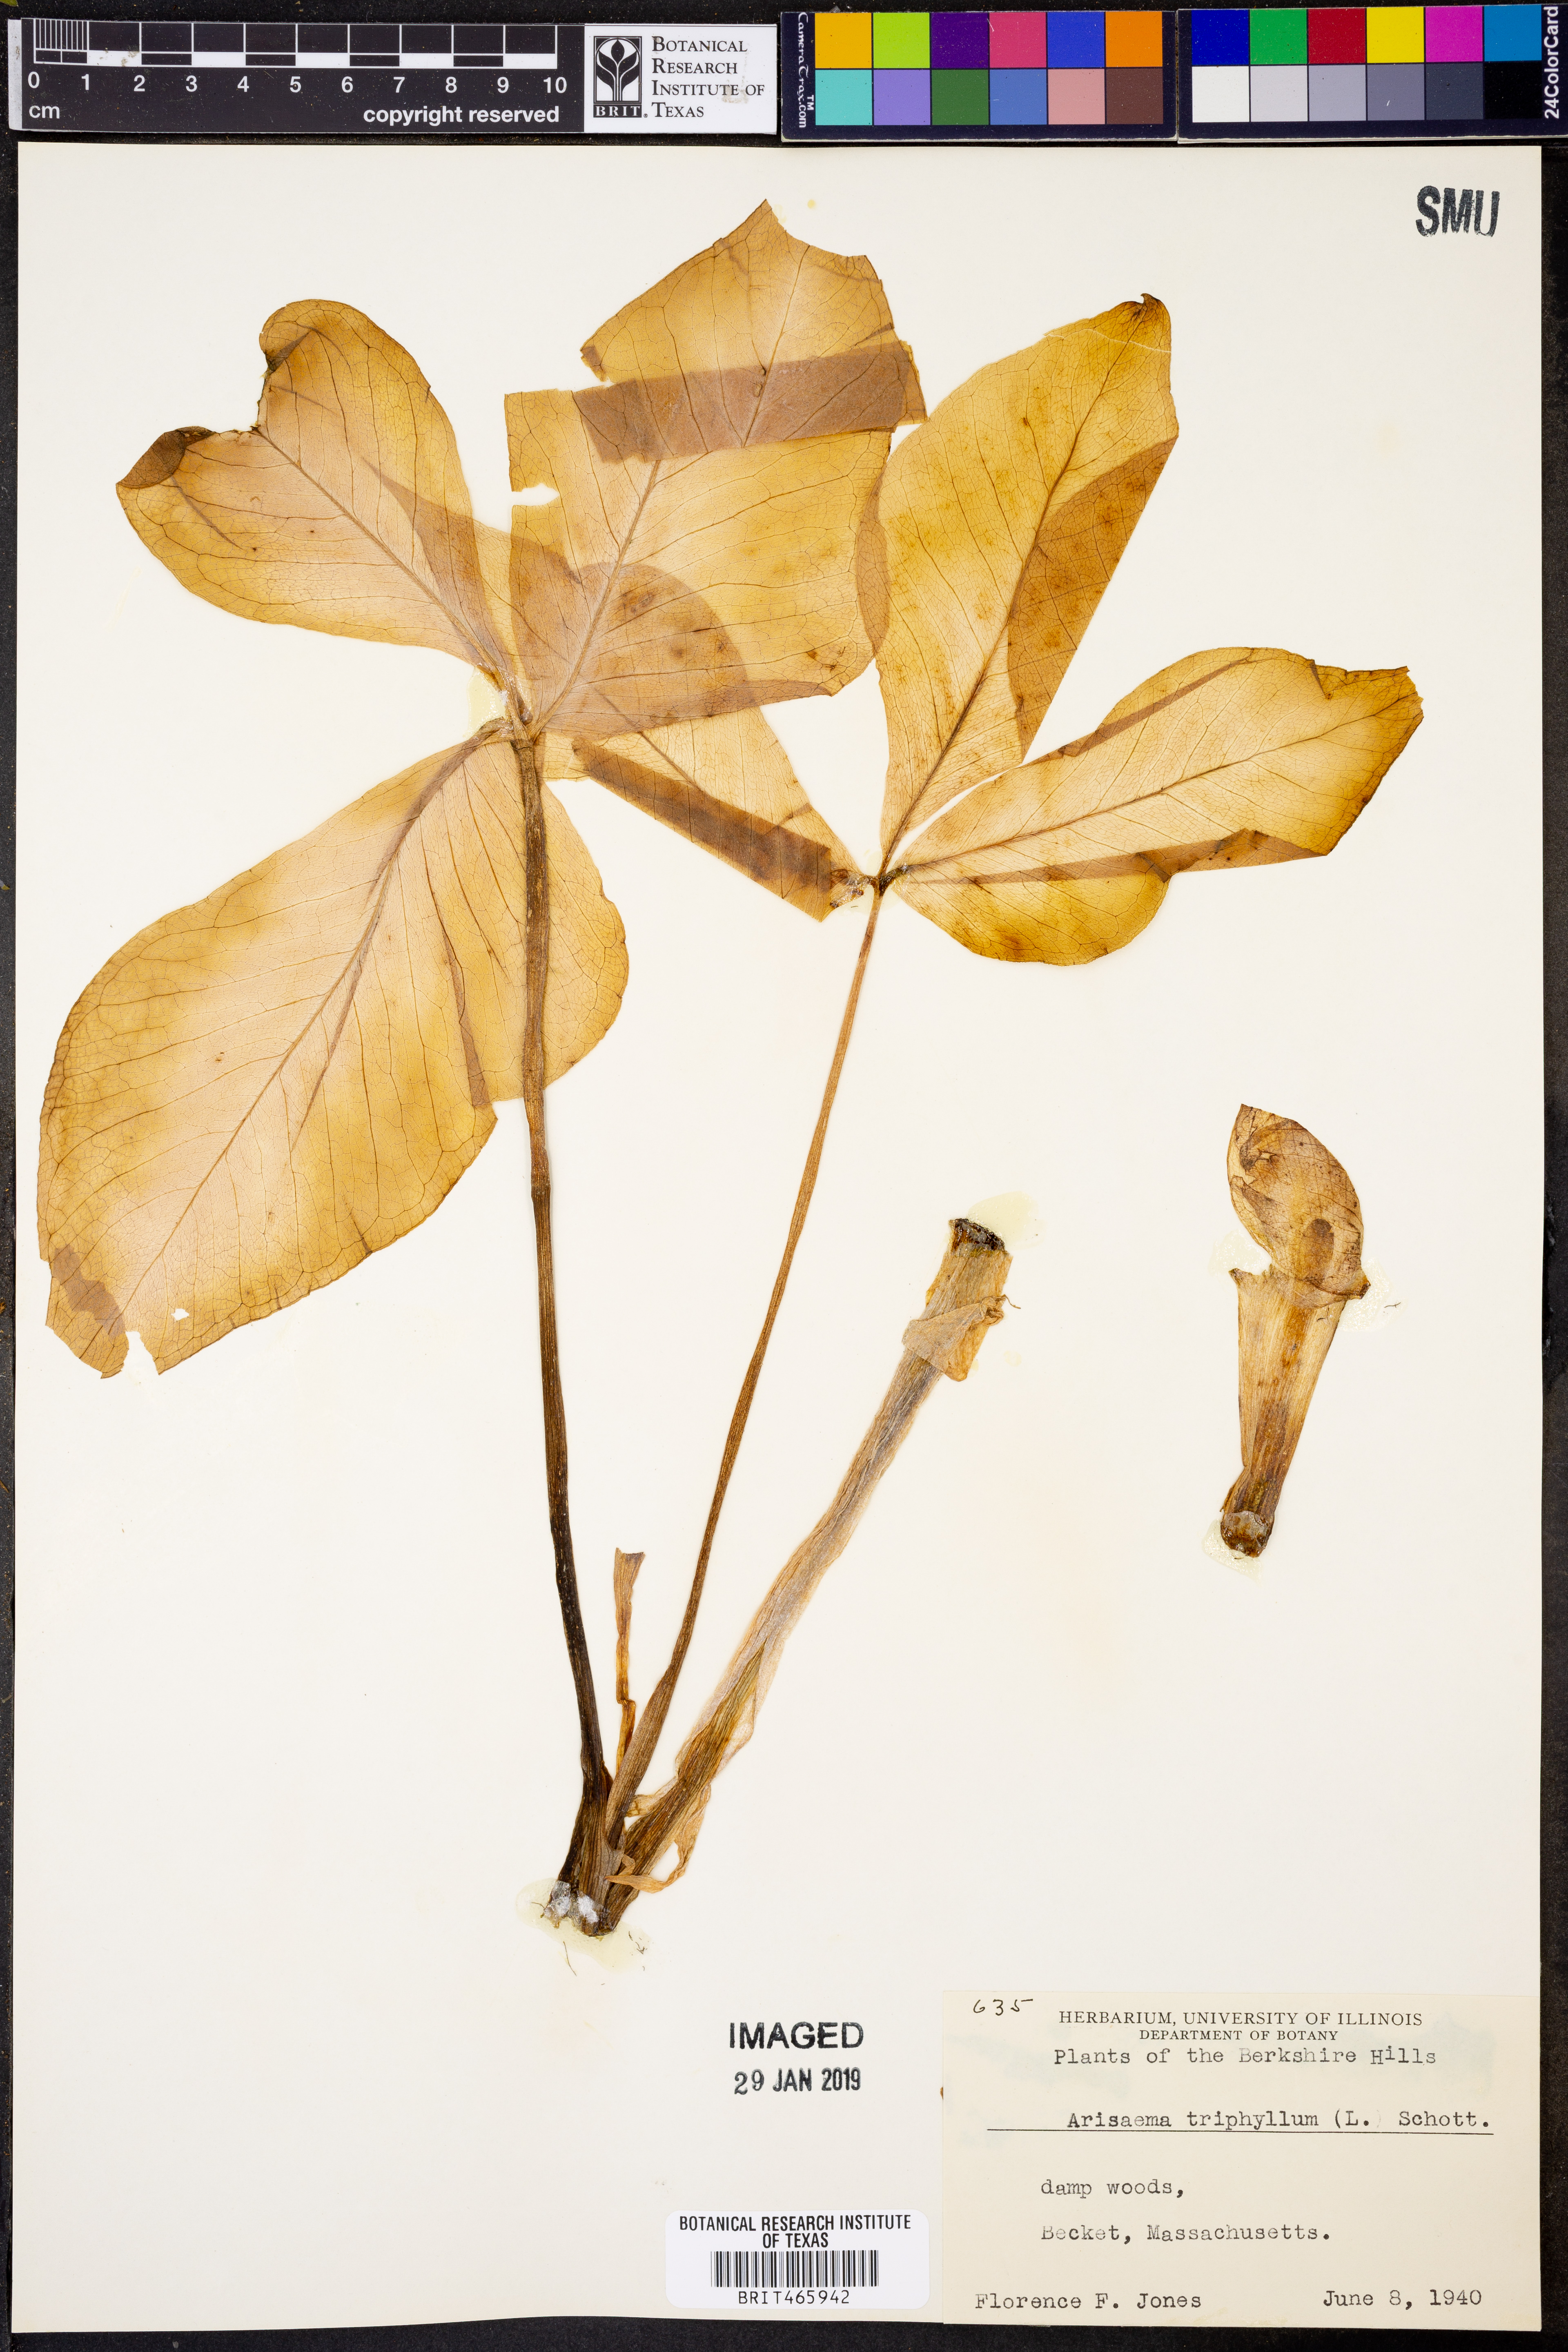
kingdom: Plantae
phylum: Tracheophyta
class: Liliopsida
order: Alismatales
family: Araceae
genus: Arisaema
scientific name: Arisaema triphyllum
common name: Jack-in-the-pulpit
